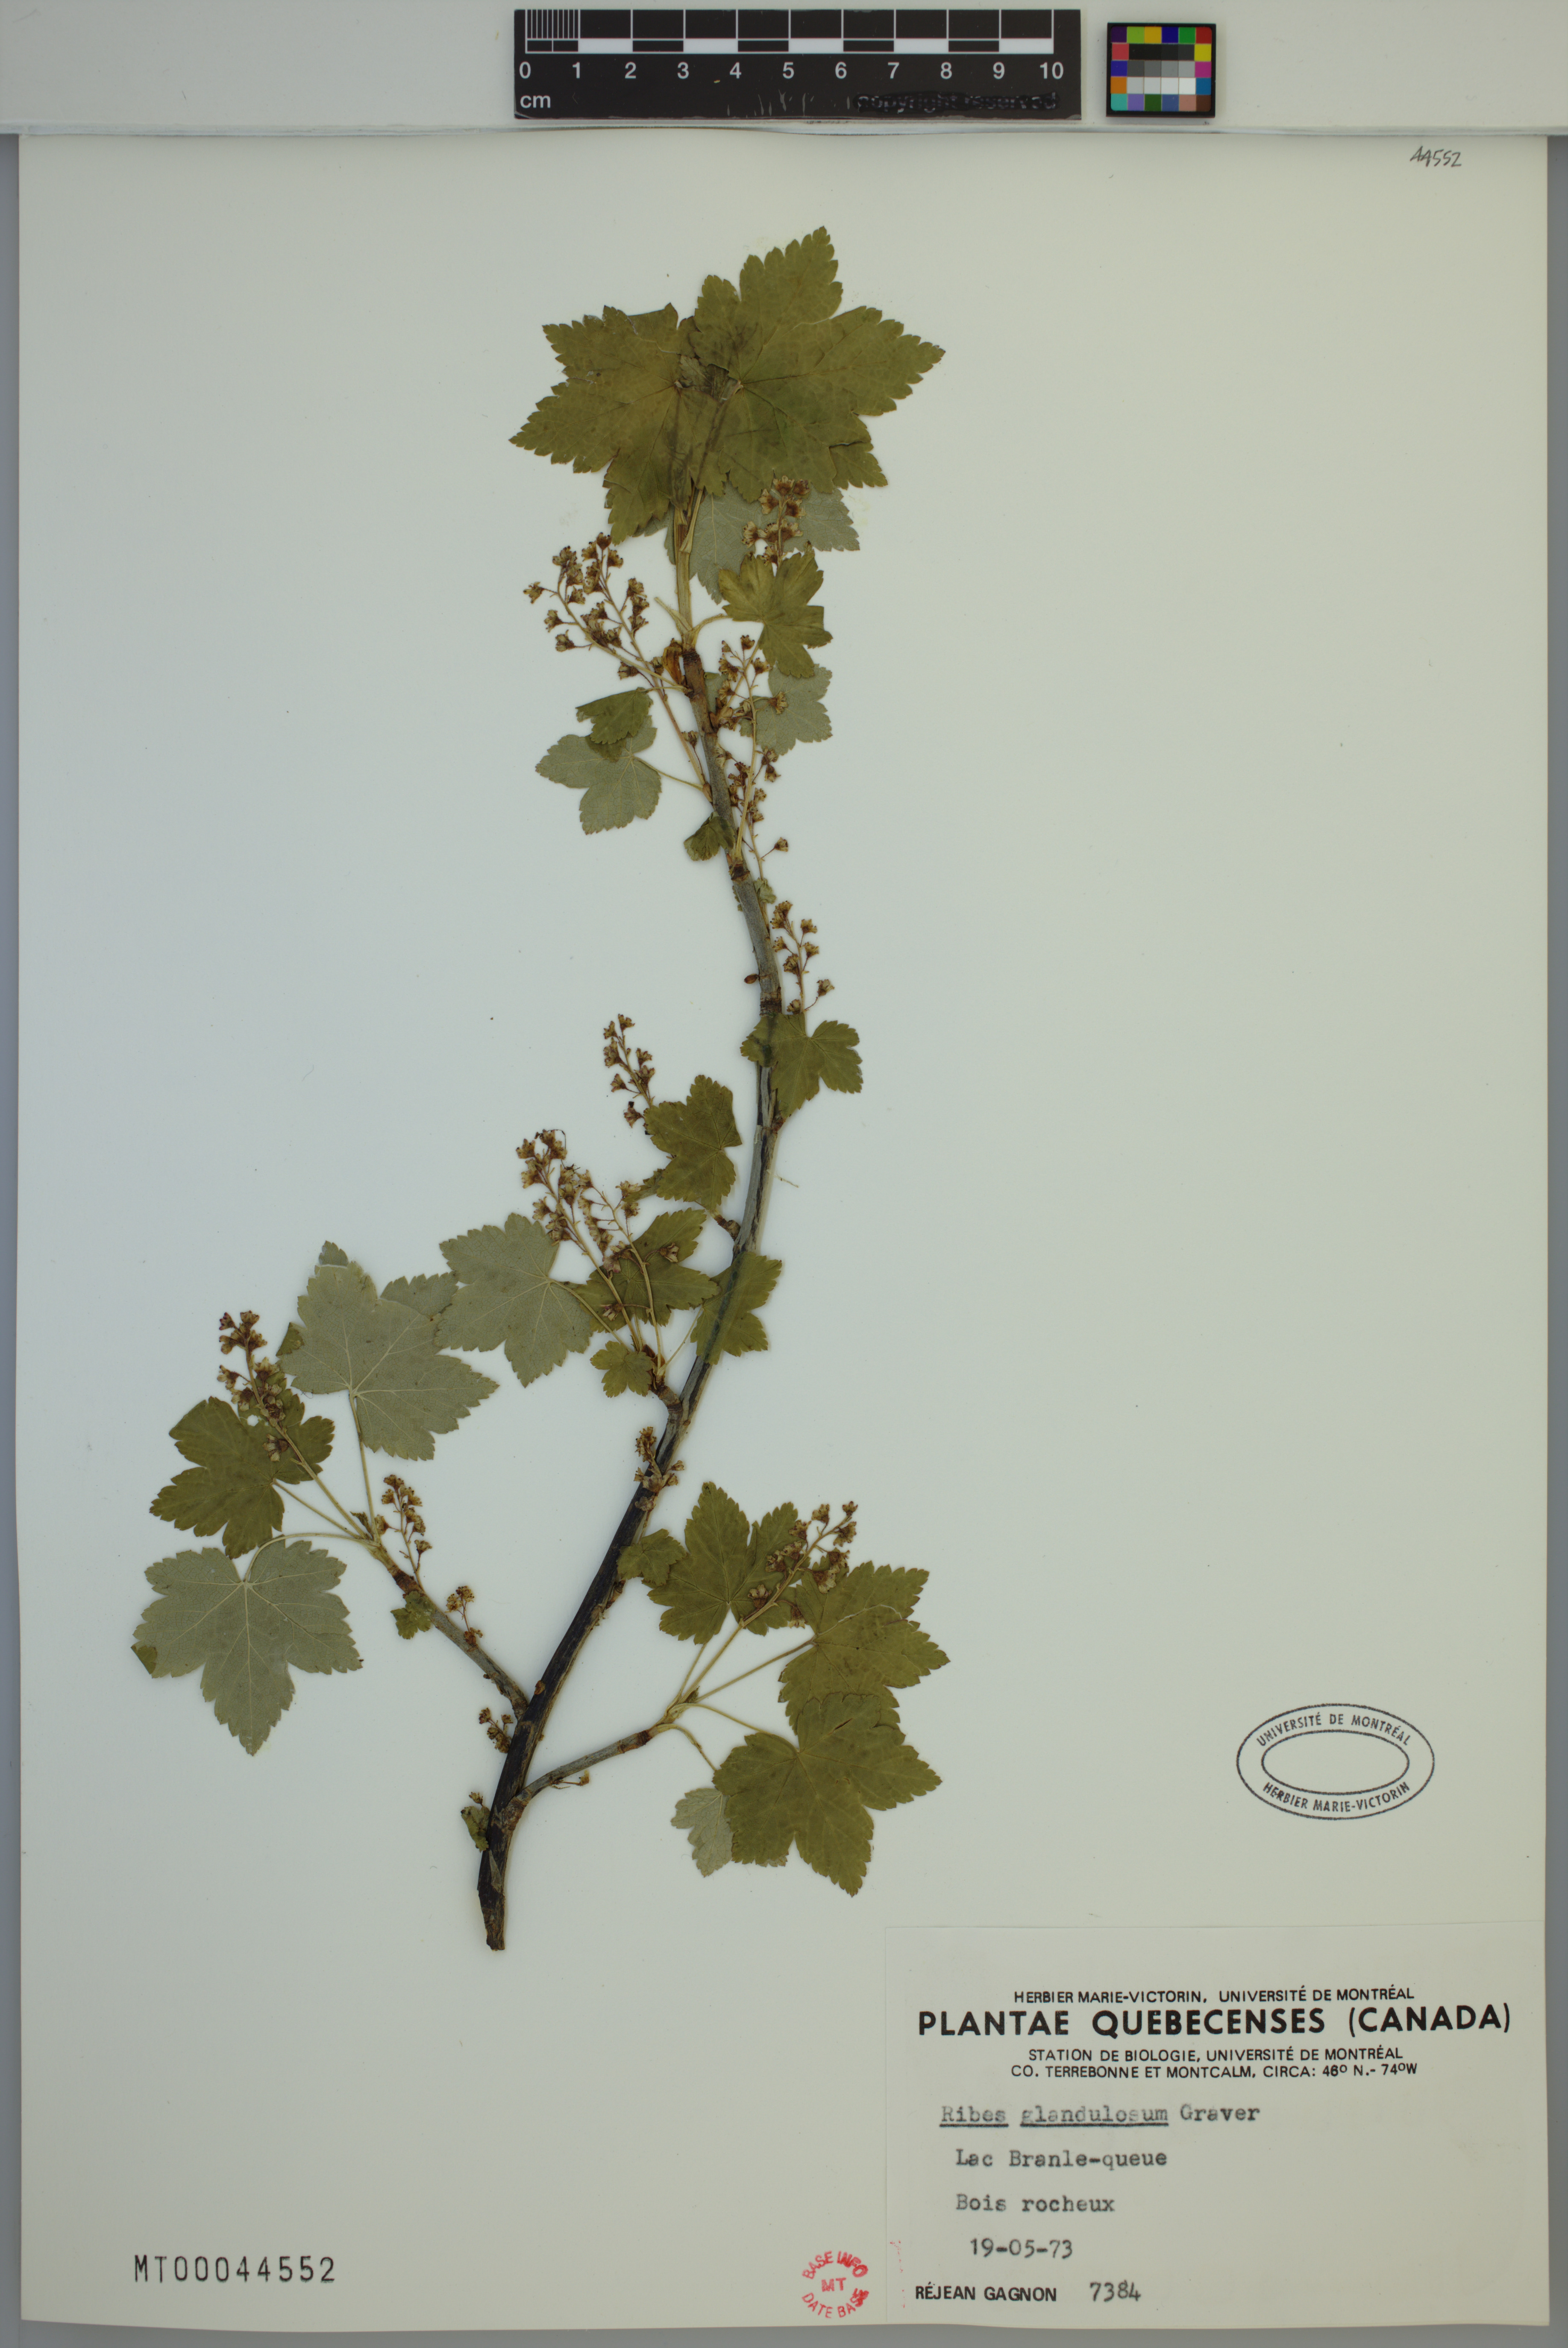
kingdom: Plantae
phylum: Tracheophyta
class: Magnoliopsida
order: Saxifragales
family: Grossulariaceae
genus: Ribes
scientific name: Ribes glandulosum
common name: Skunk currant
